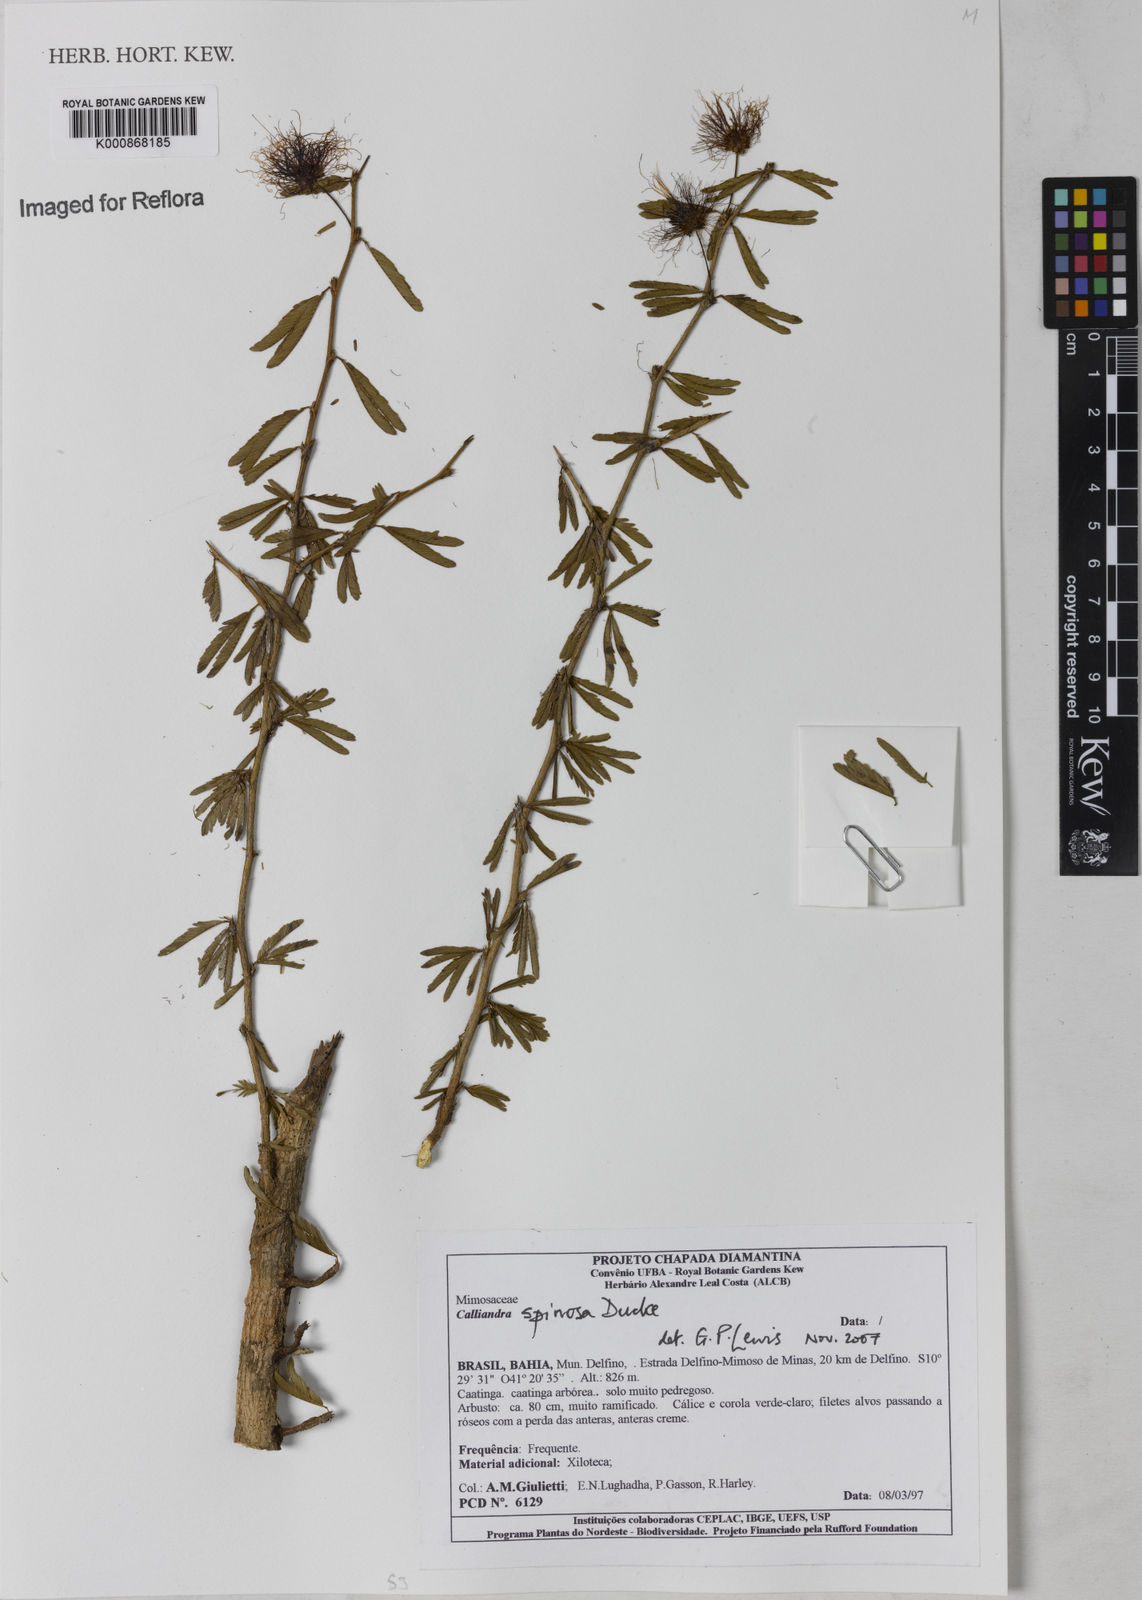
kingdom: Plantae
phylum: Tracheophyta
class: Magnoliopsida
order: Fabales
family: Fabaceae
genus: Calliandra
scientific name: Calliandra spinosa
